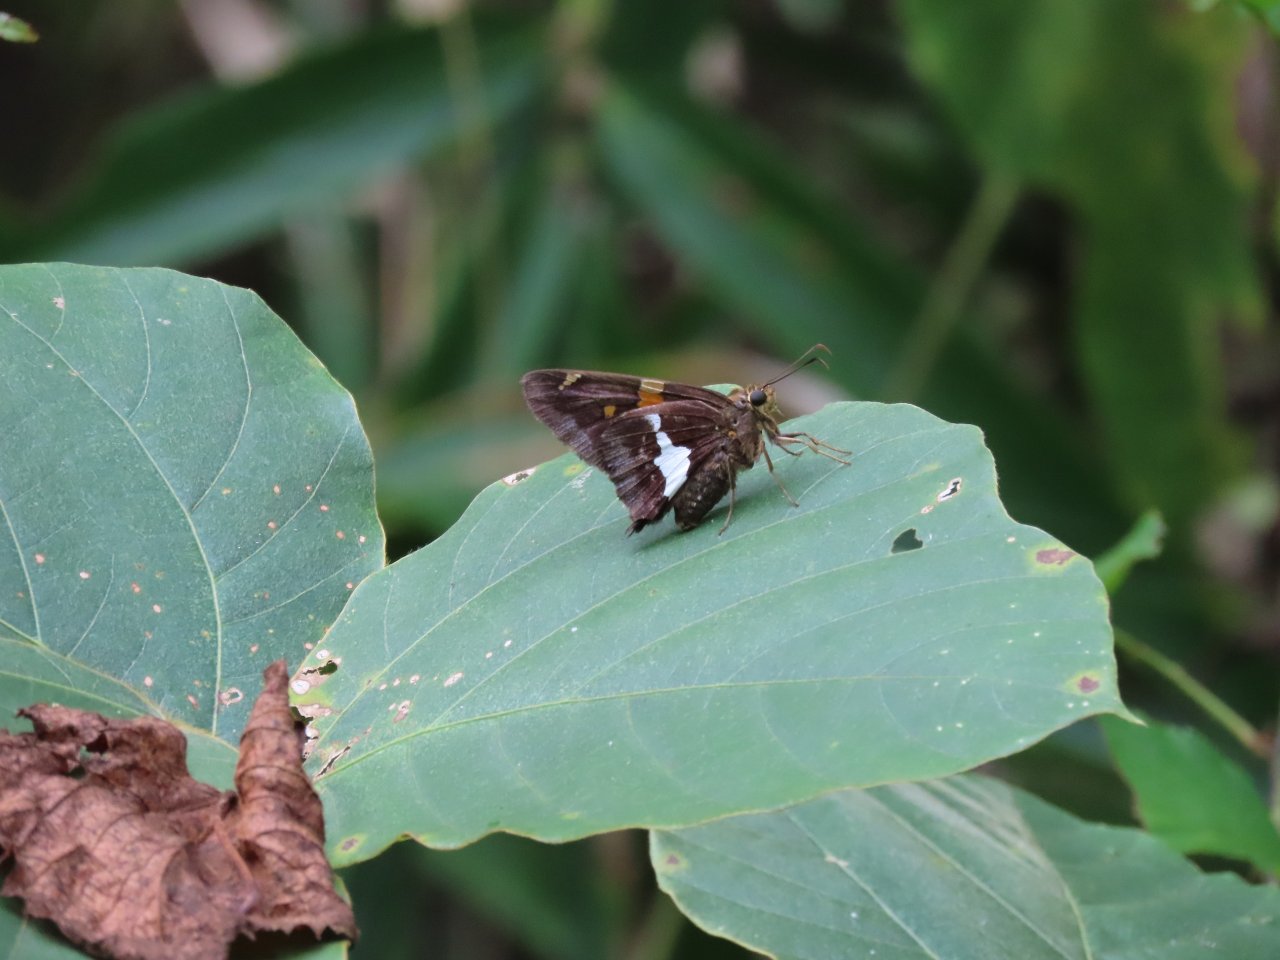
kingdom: Animalia
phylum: Arthropoda
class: Insecta
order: Lepidoptera
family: Hesperiidae
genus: Epargyreus
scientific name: Epargyreus clarus
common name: Silver-spotted Skipper
